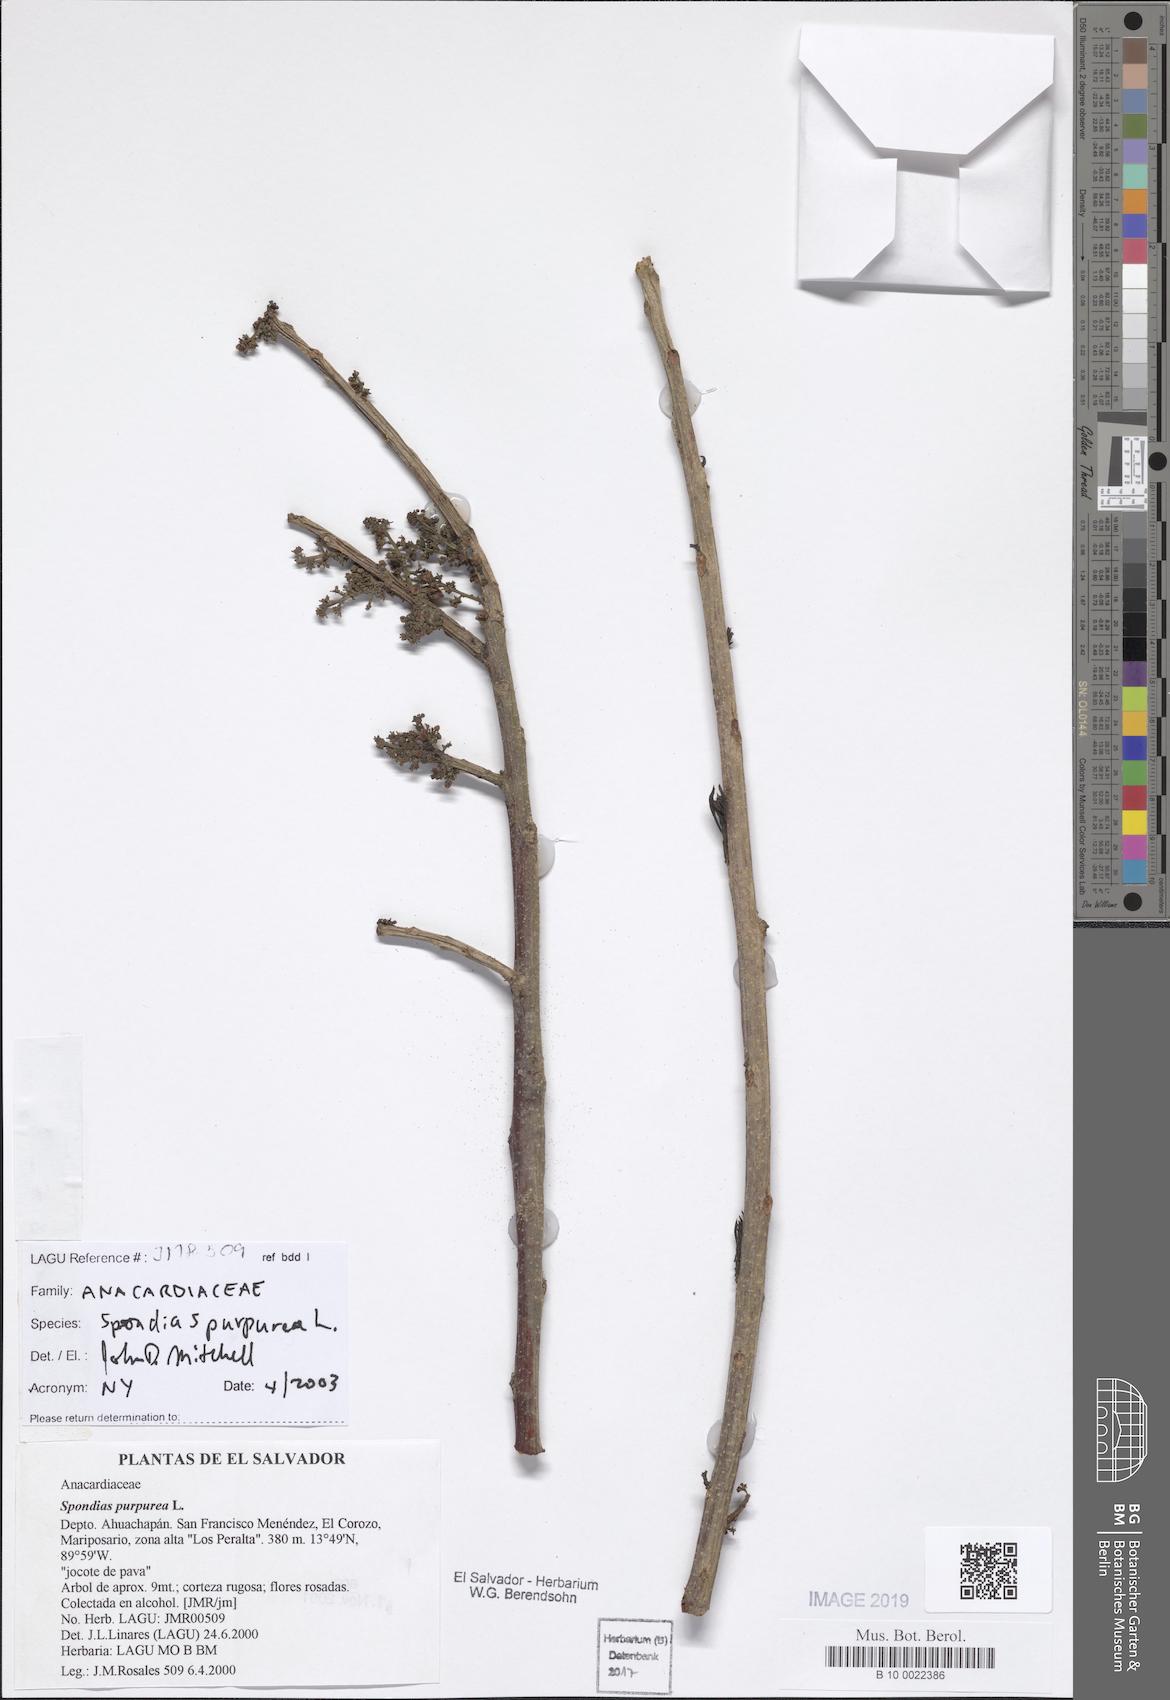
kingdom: Plantae
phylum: Tracheophyta
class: Magnoliopsida
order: Sapindales
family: Anacardiaceae
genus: Spondias
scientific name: Spondias purpurea
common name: Purple mombin
